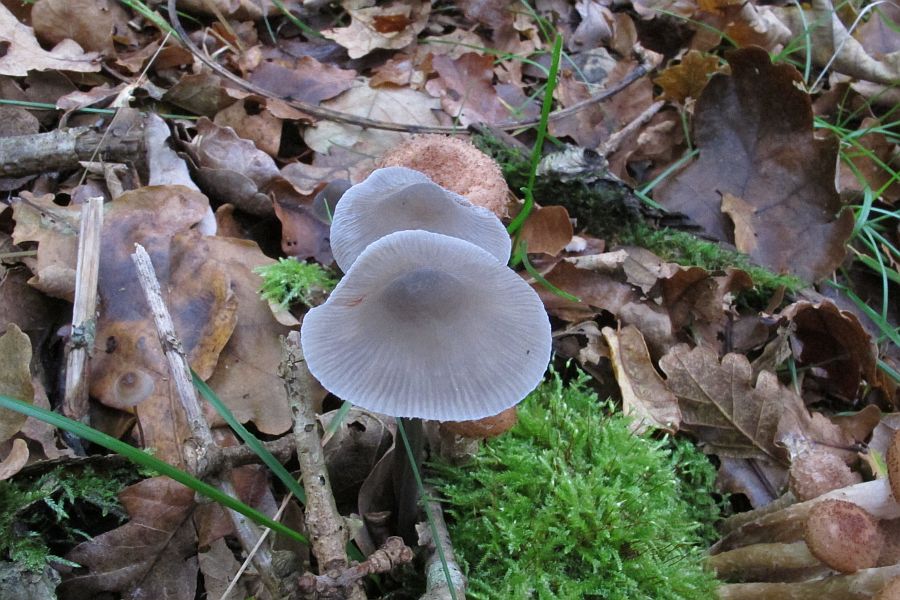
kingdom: Fungi
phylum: Basidiomycota
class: Agaricomycetes
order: Agaricales
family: Mycenaceae
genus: Mycena
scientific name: Mycena polygramma
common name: mangestribet huesvamp
